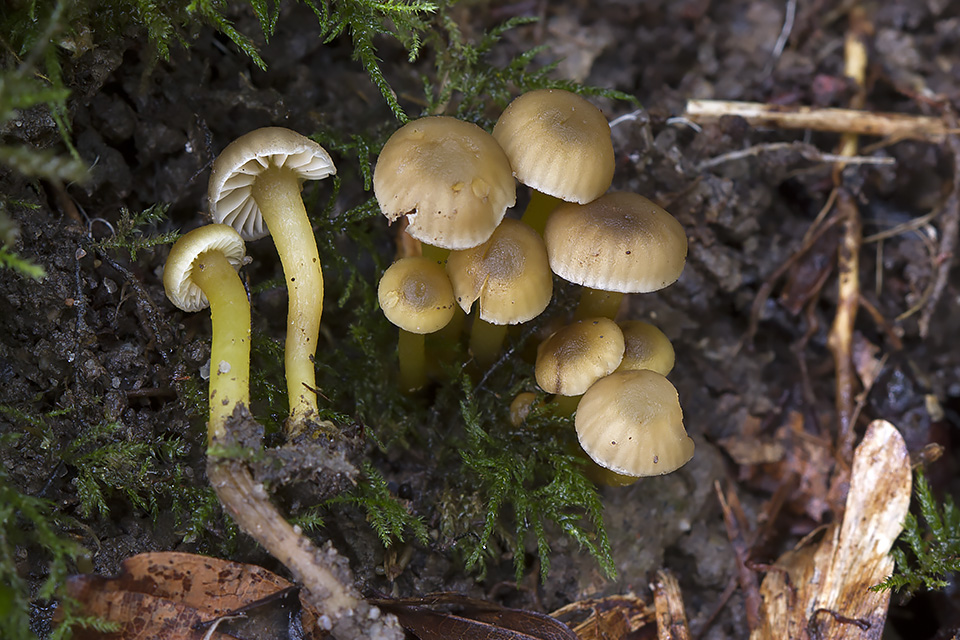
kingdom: Fungi
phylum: Basidiomycota
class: Agaricomycetes
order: Agaricales
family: Clavariaceae
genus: Hodophilus
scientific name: Hodophilus phaeoxanthus
